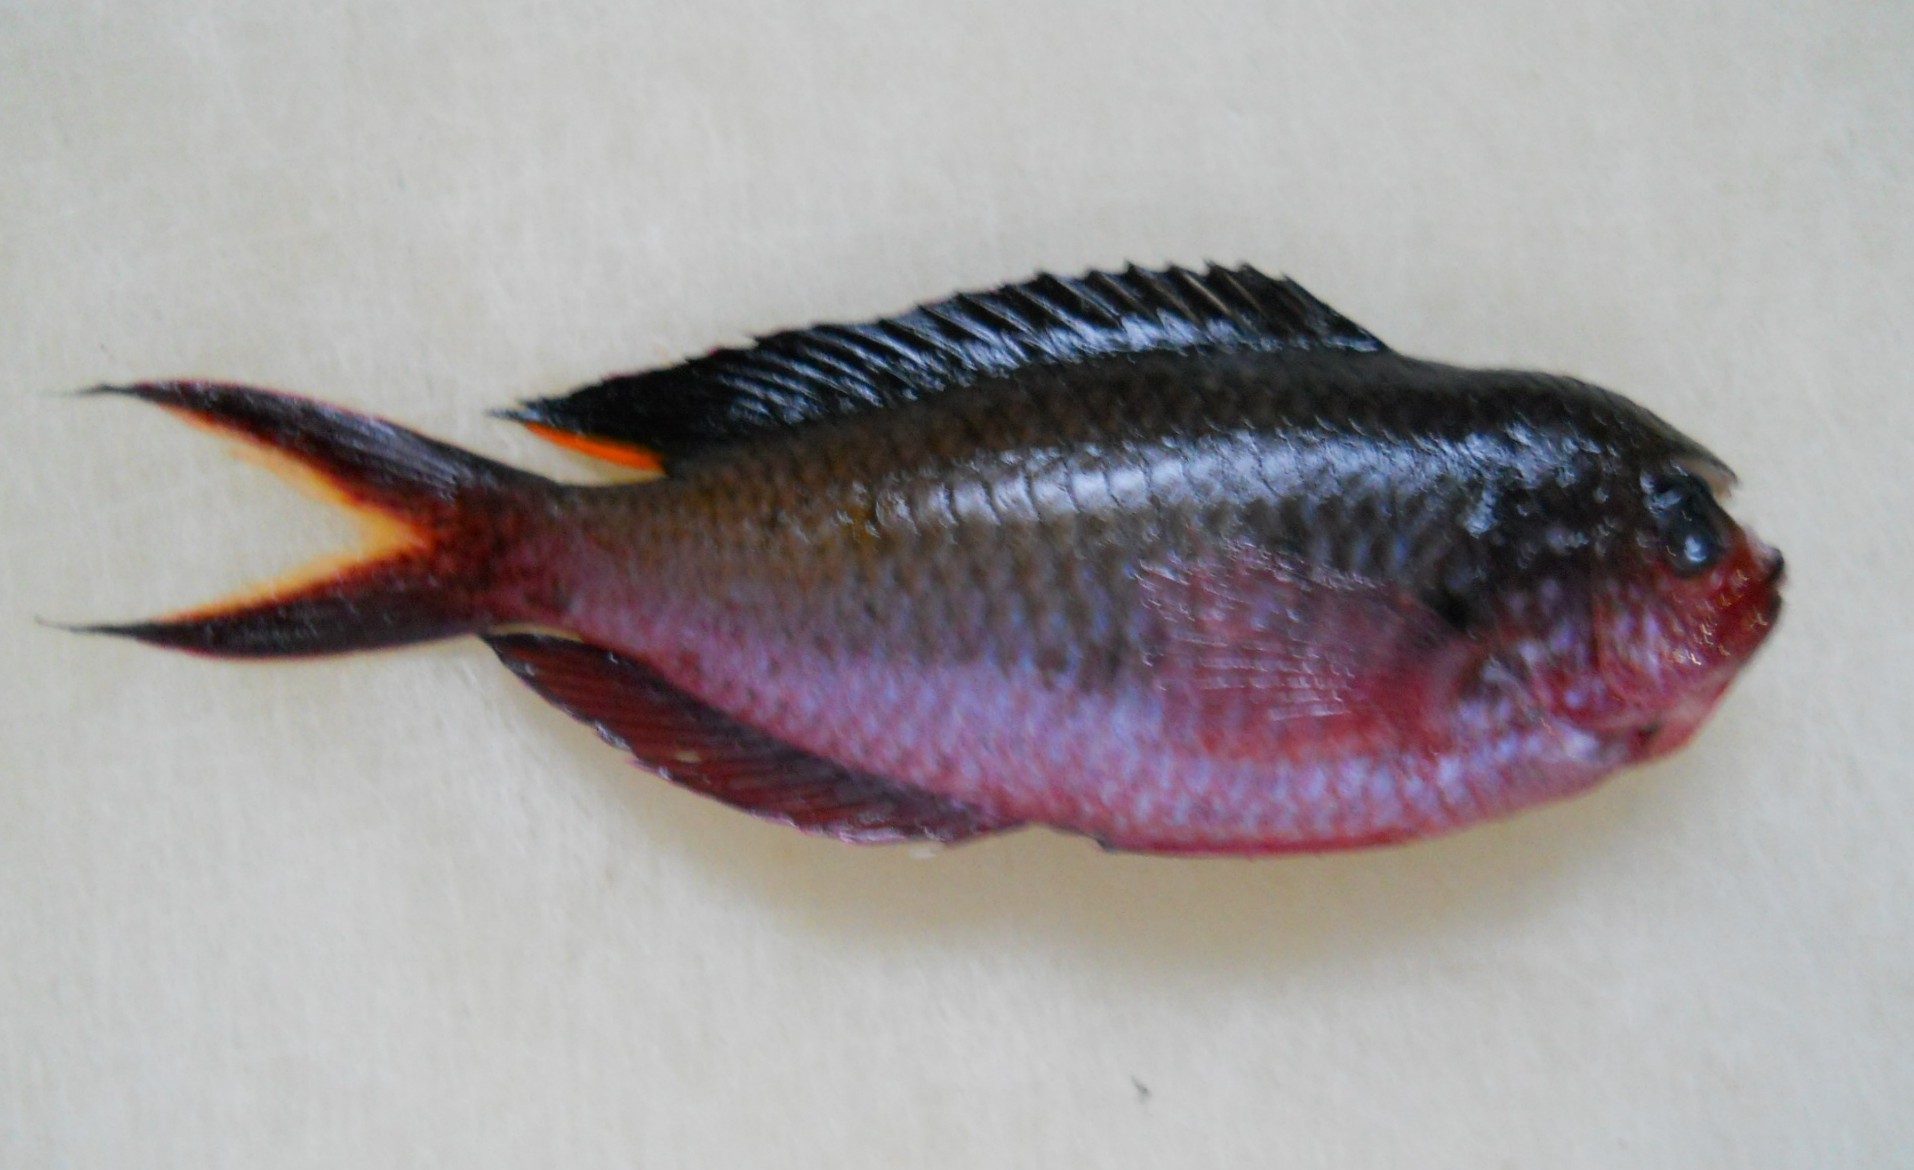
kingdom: Animalia
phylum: Chordata
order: Perciformes
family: Pomacentridae
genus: Lepidozygus
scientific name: Lepidozygus tapeinosoma
